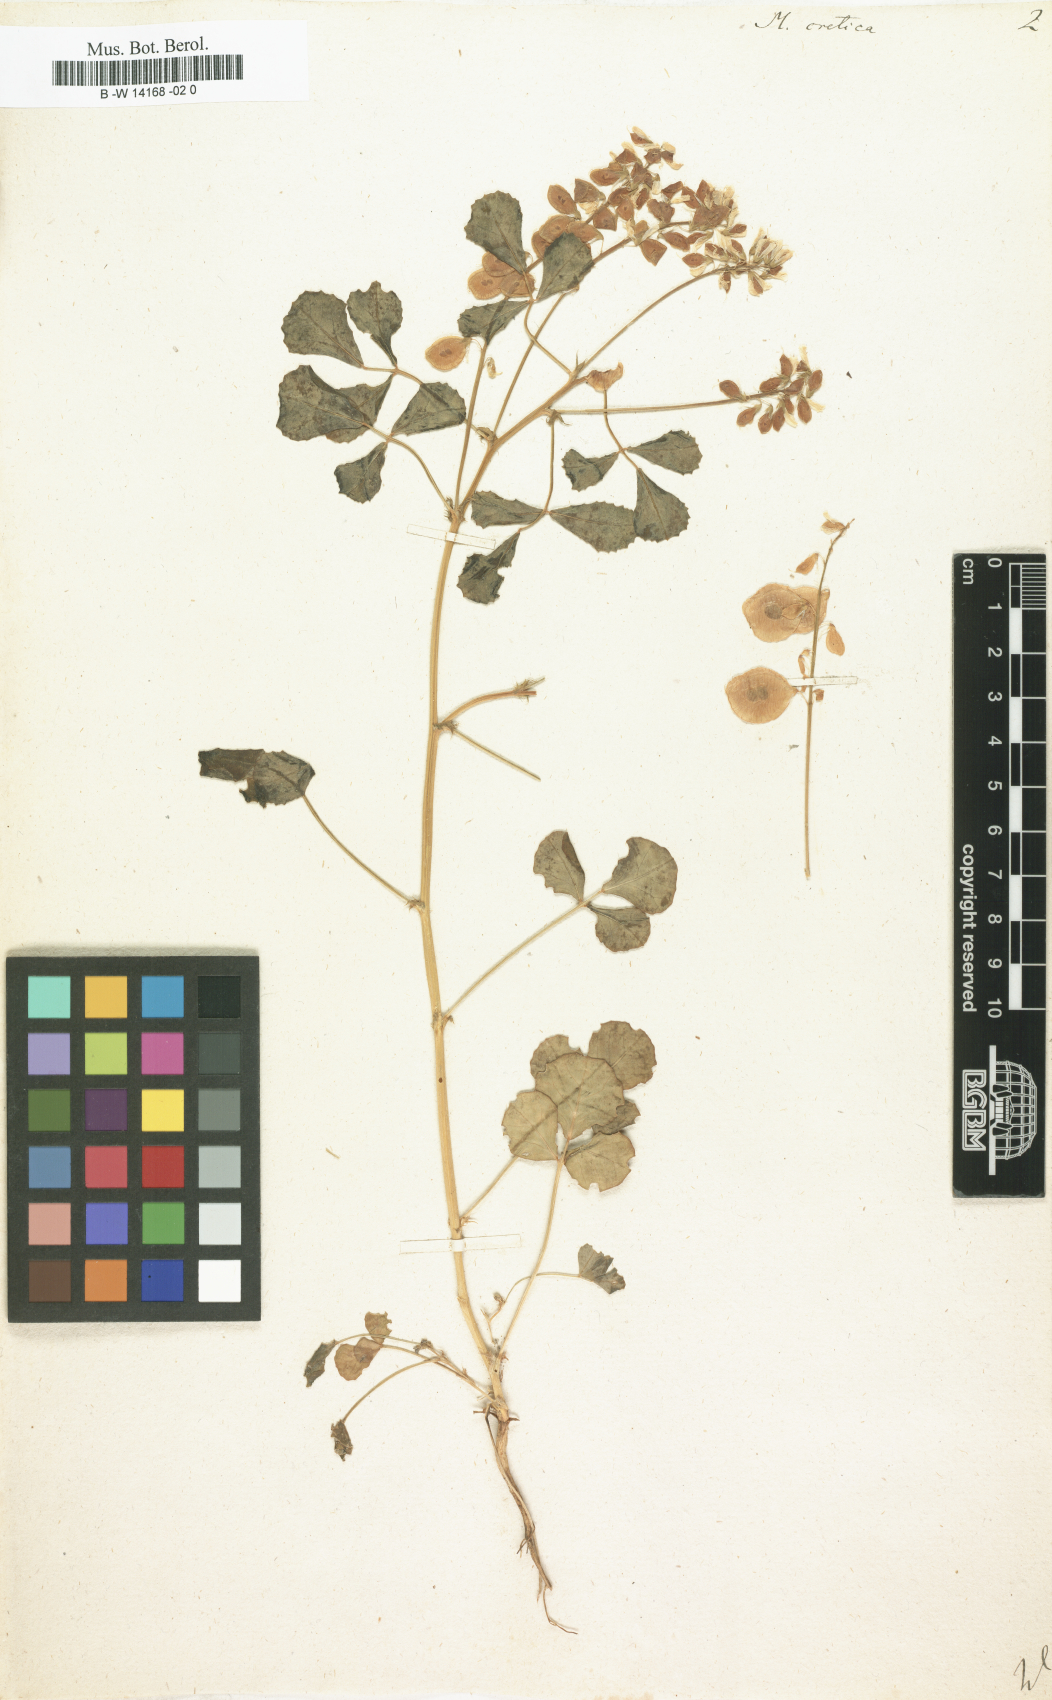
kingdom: Plantae
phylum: Tracheophyta
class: Magnoliopsida
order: Fabales
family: Fabaceae
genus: Trigonella
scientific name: Trigonella cretica
